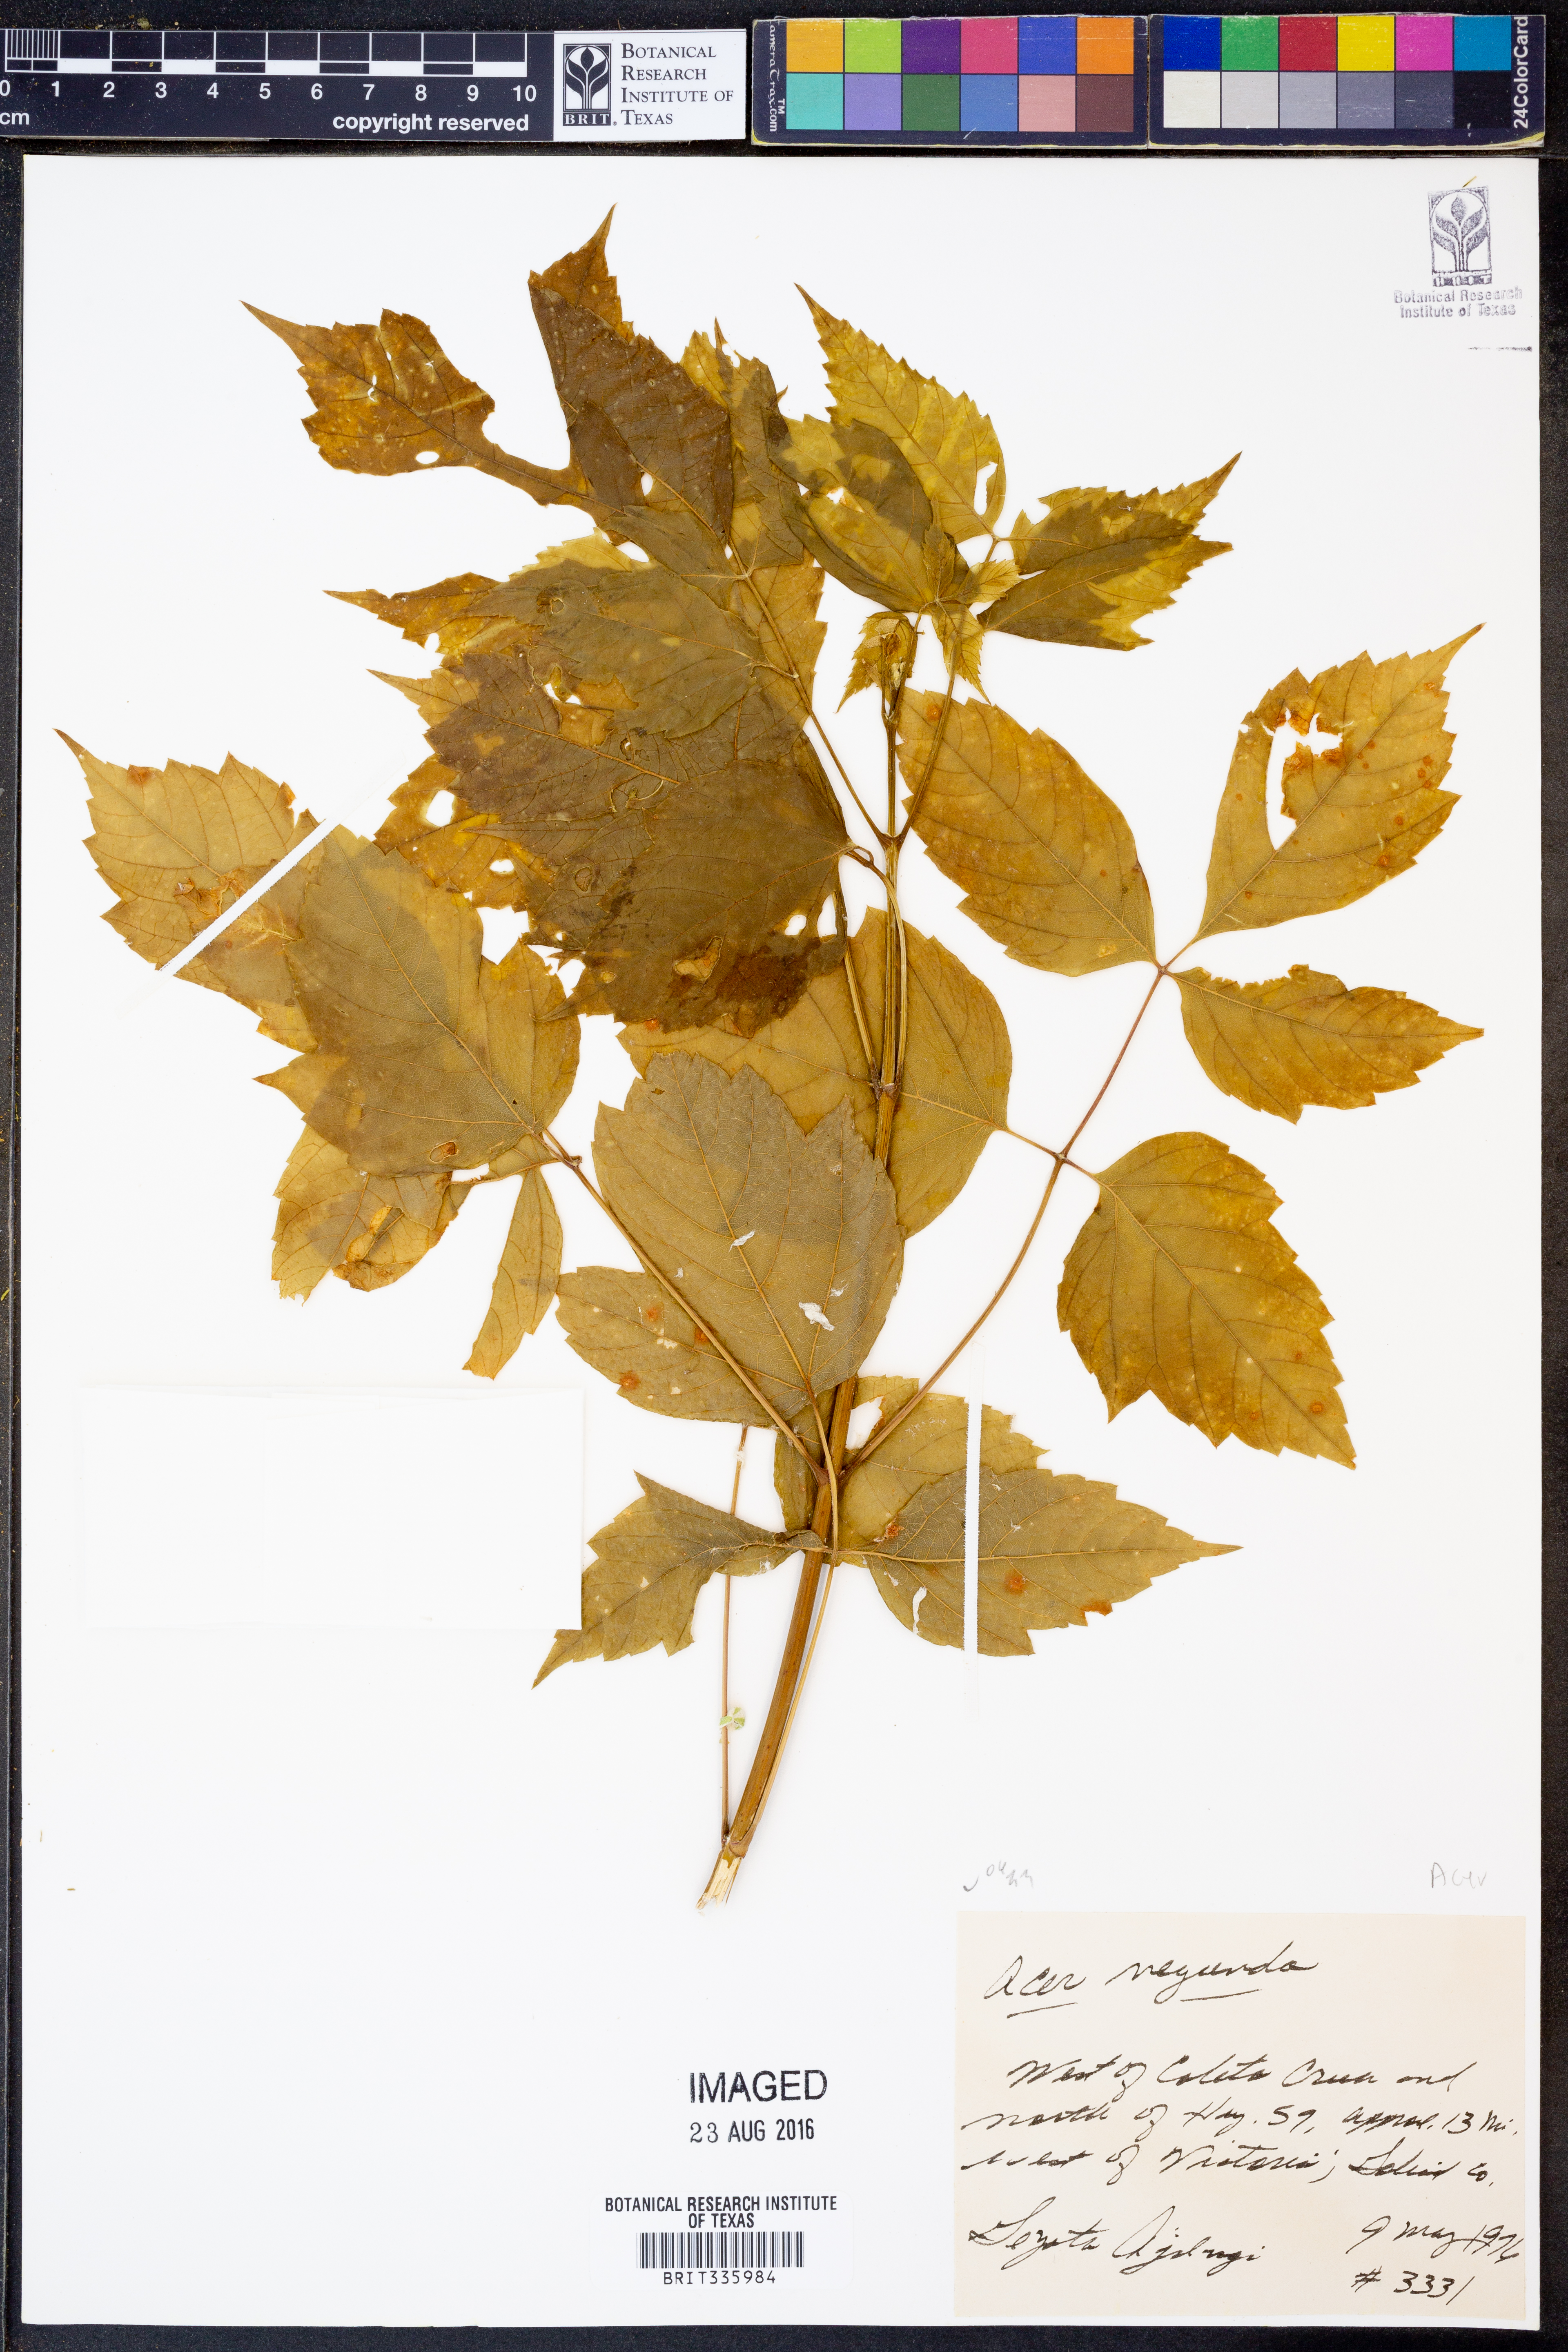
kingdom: Plantae
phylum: Tracheophyta
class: Magnoliopsida
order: Sapindales
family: Sapindaceae
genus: Acer
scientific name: Acer negundo
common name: Ashleaf maple
